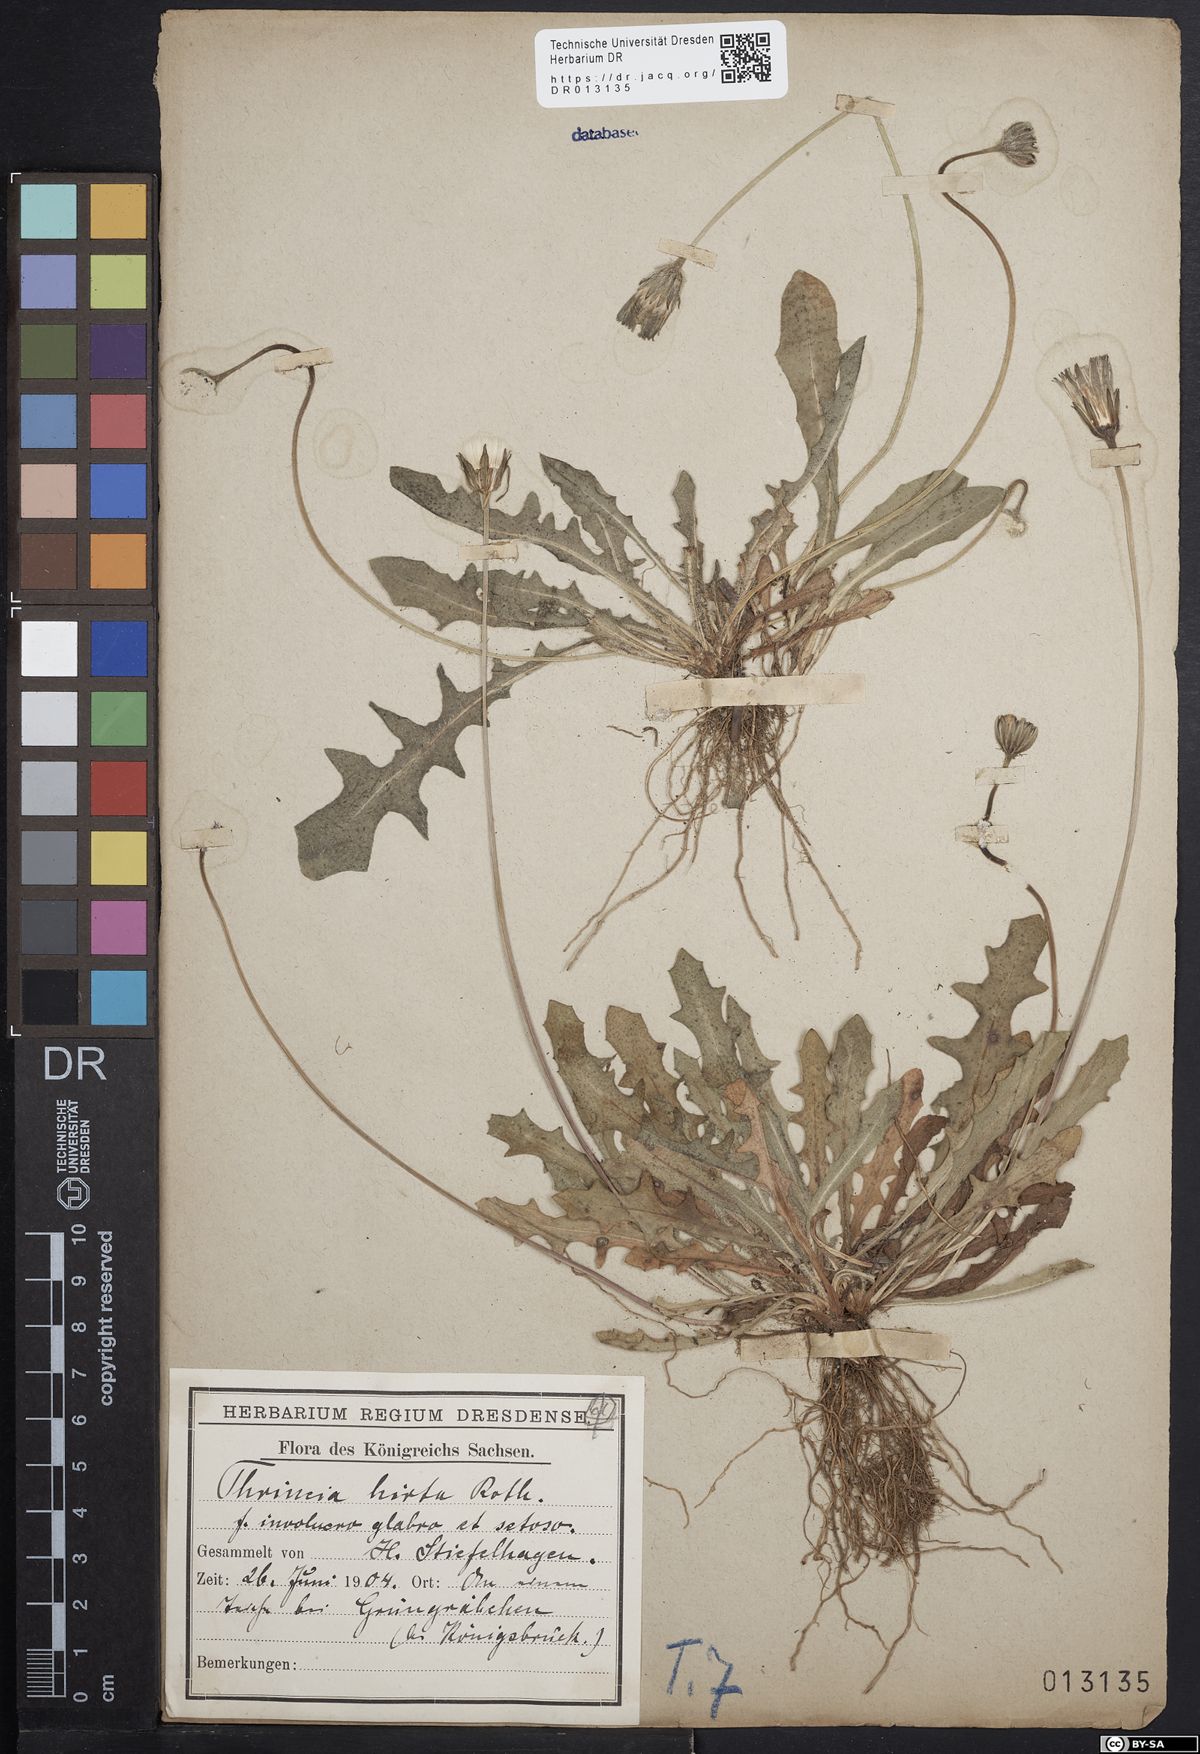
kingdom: Plantae
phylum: Tracheophyta
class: Magnoliopsida
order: Asterales
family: Asteraceae
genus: Thrincia
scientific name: Thrincia saxatilis
